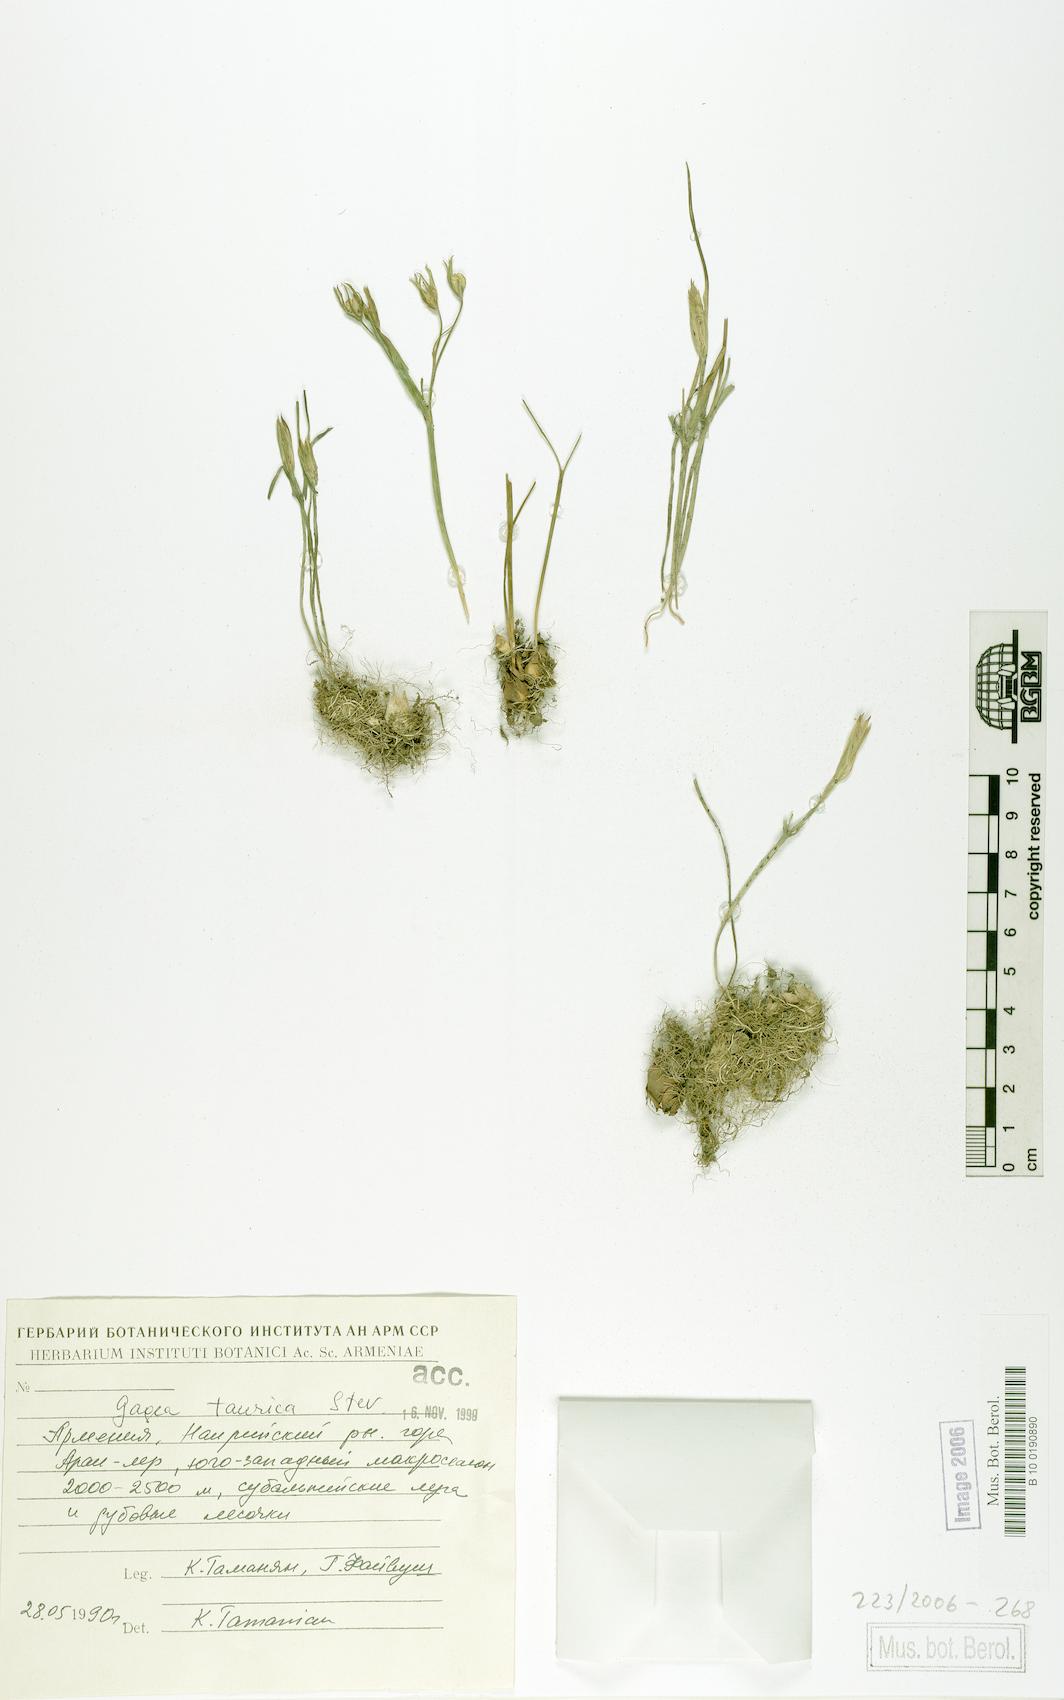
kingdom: Plantae
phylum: Tracheophyta
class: Liliopsida
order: Liliales
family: Liliaceae
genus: Gagea
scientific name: Gagea taurica
